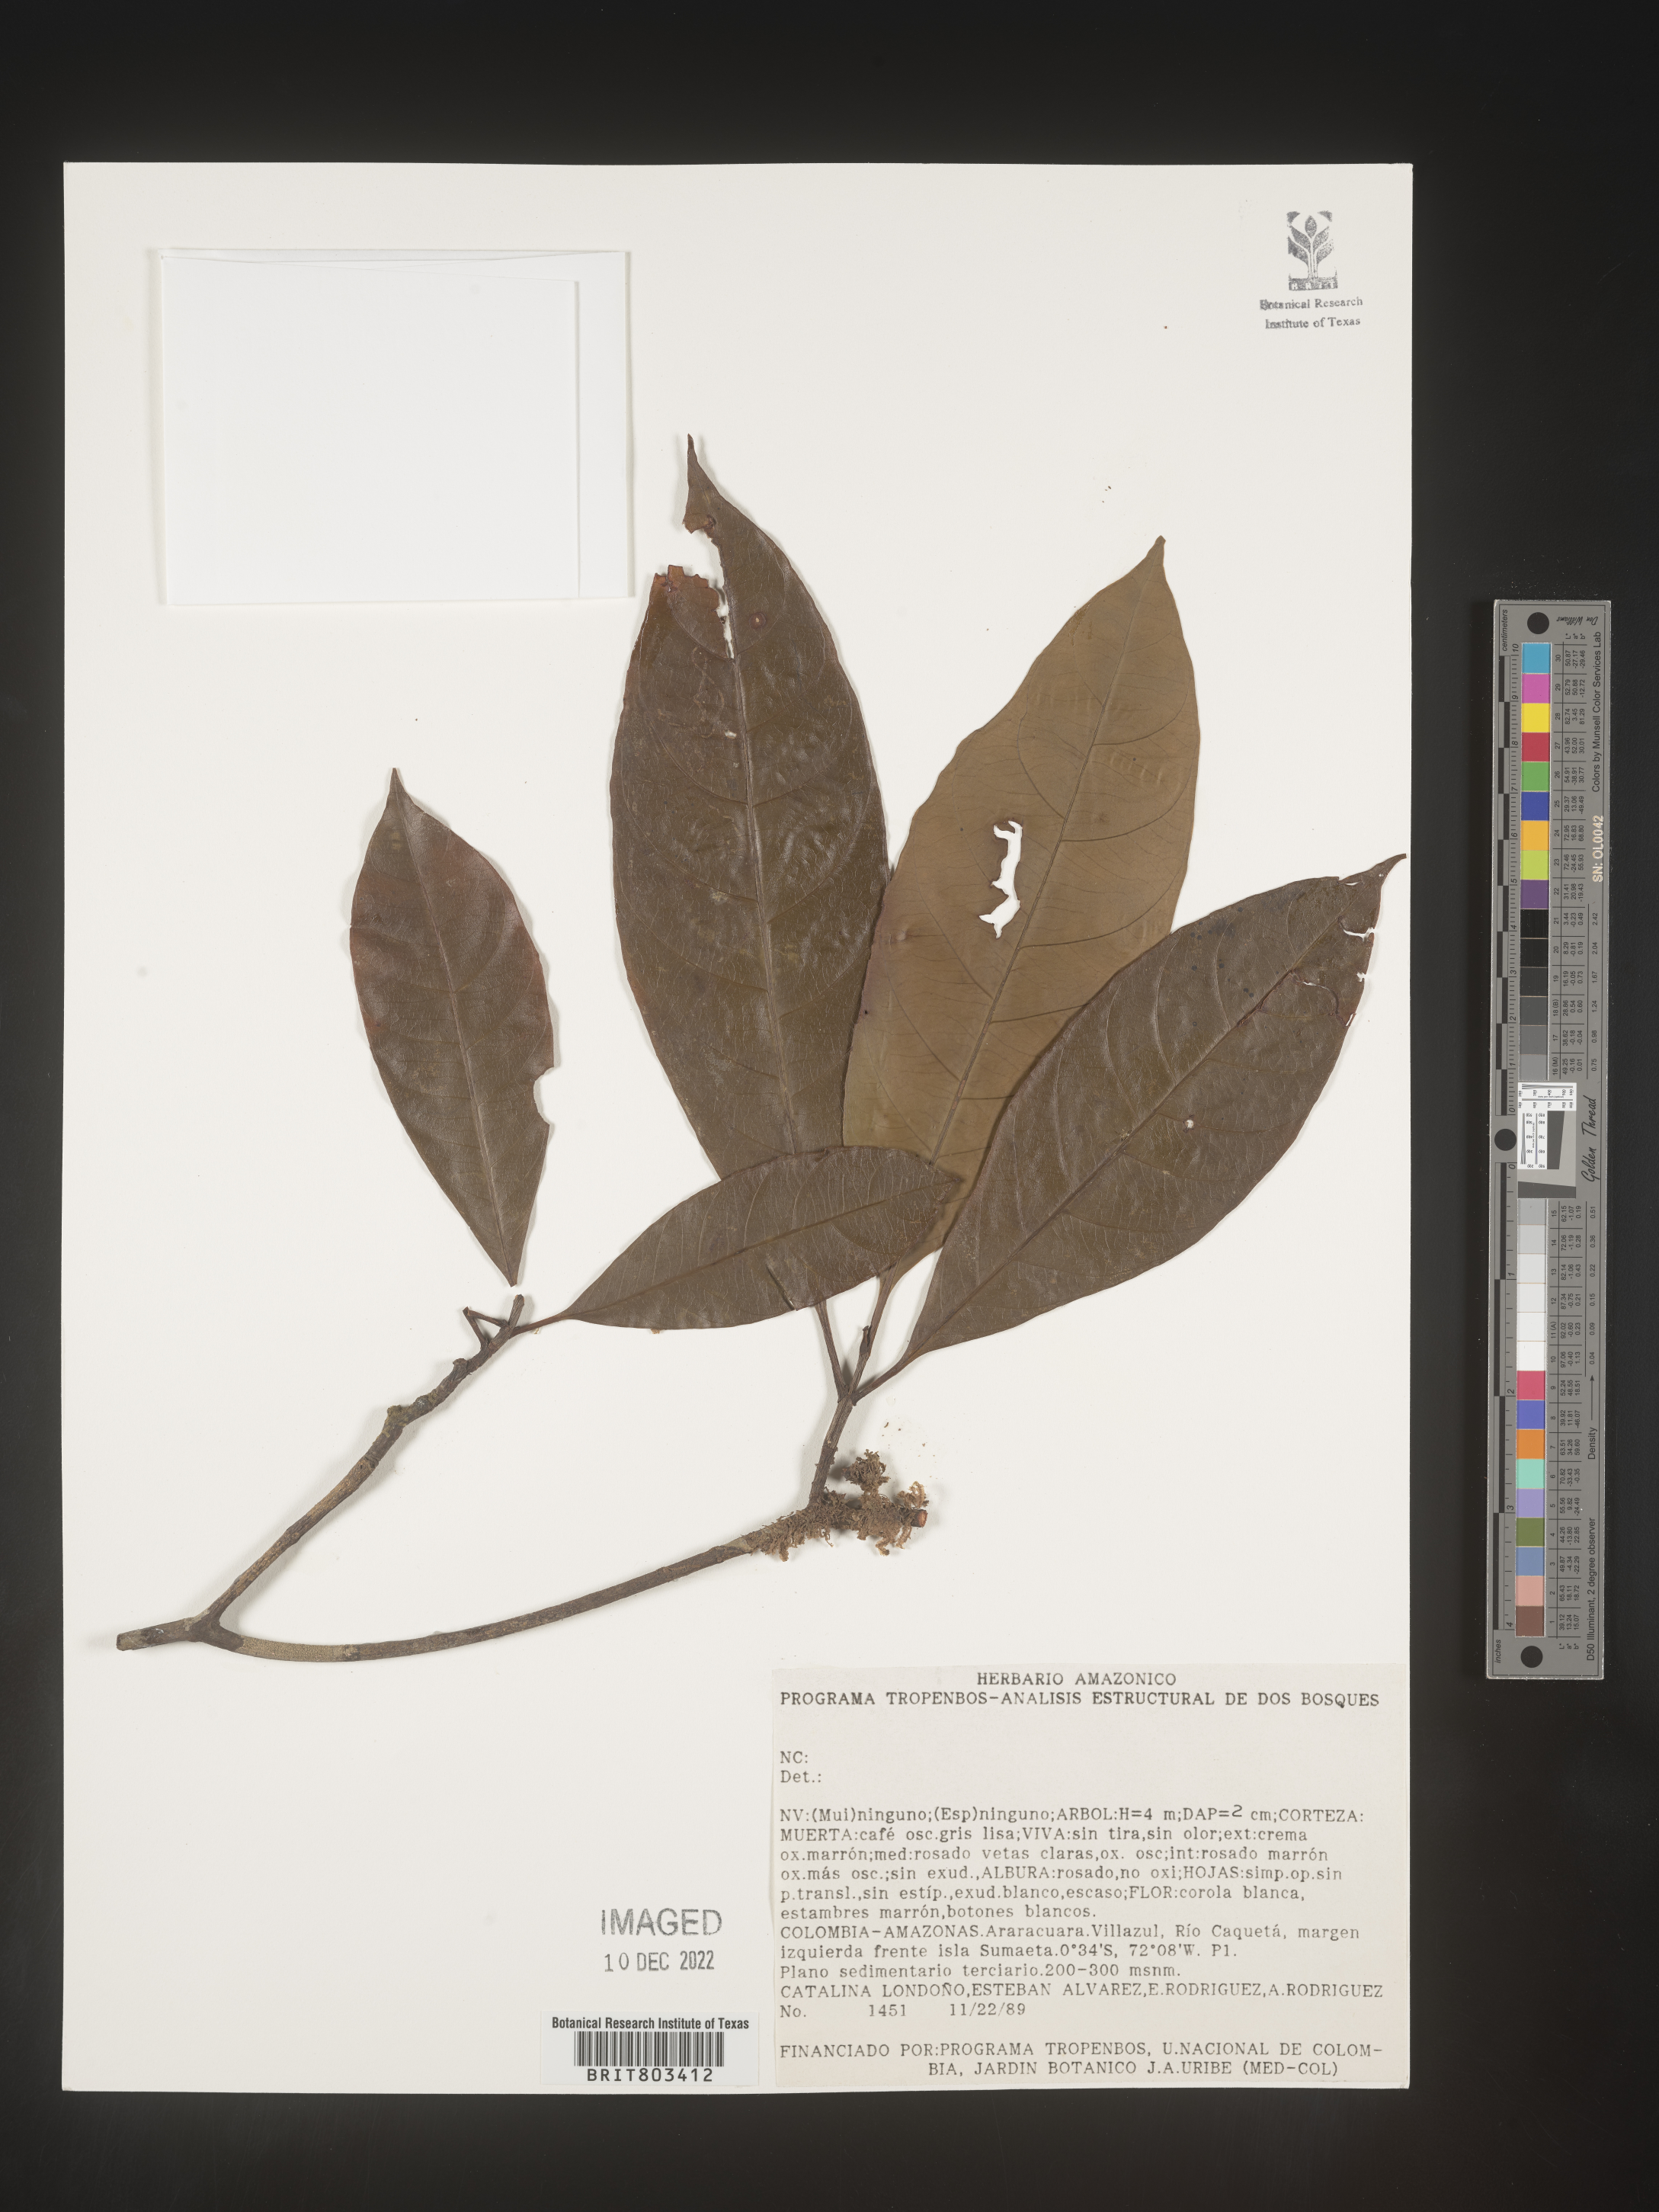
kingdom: Plantae
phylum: Tracheophyta
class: Magnoliopsida
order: Malpighiales
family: Clusiaceae
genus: Tovomita
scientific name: Tovomita
